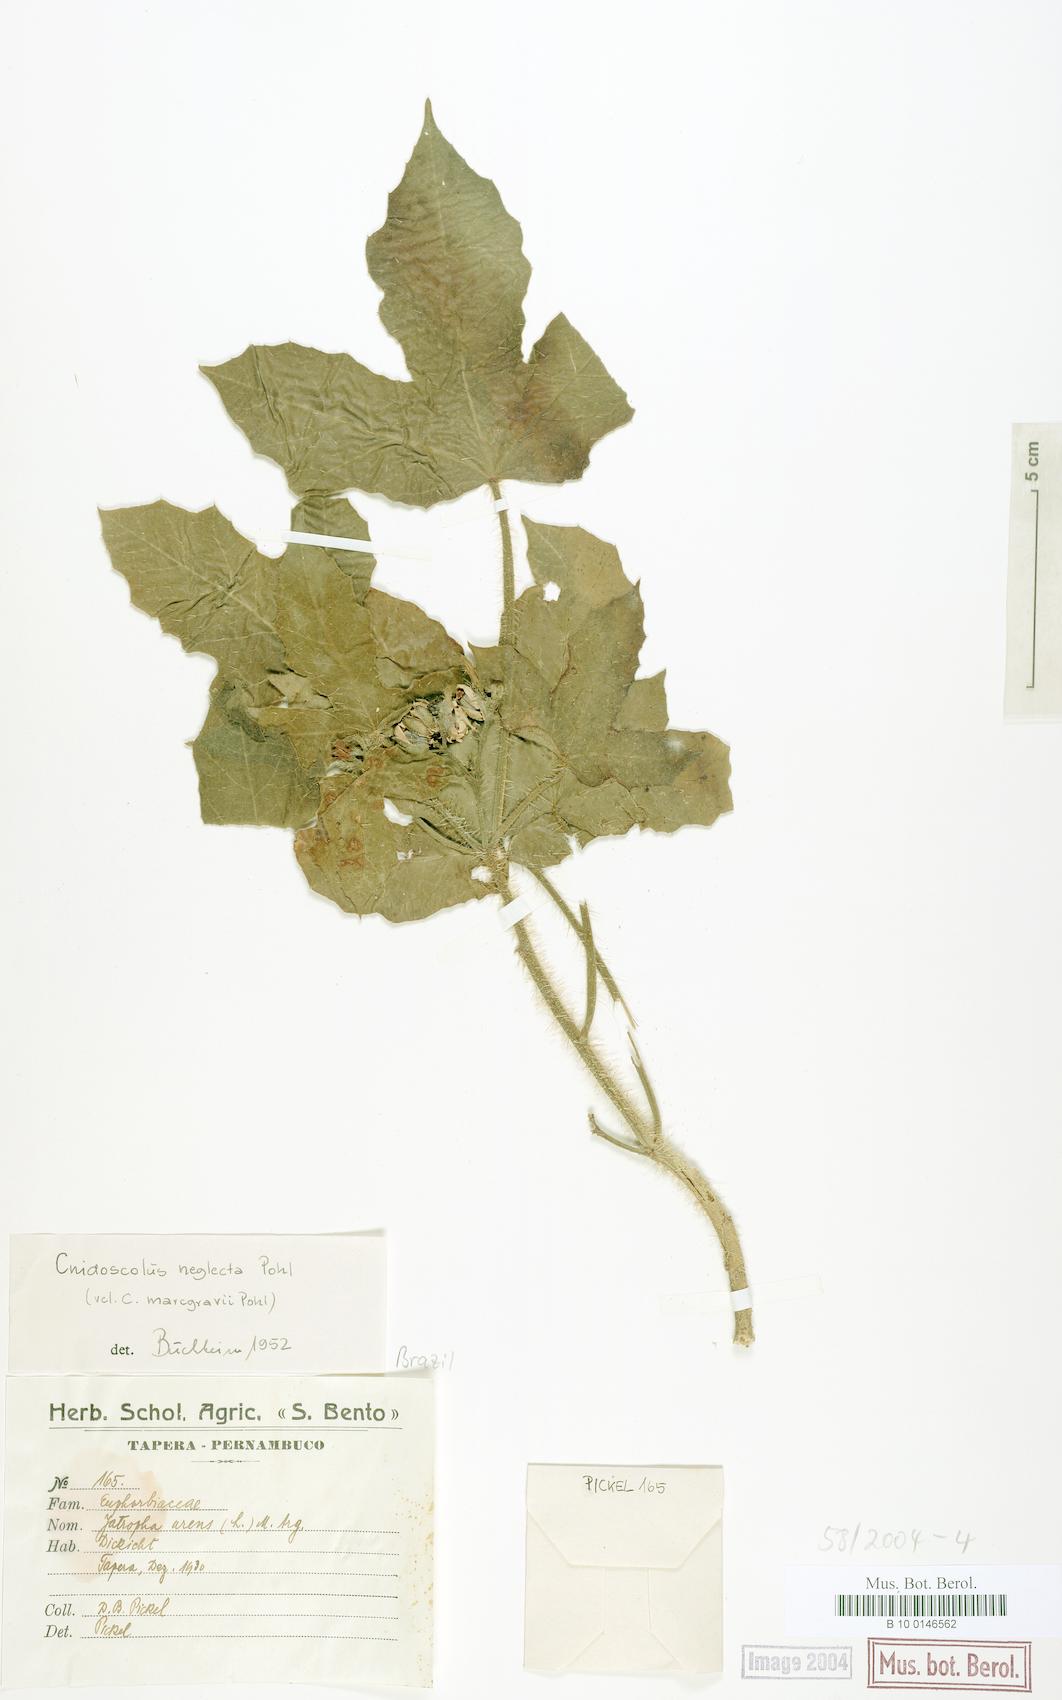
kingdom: Plantae
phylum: Tracheophyta
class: Magnoliopsida
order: Malpighiales
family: Euphorbiaceae
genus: Cnidoscolus
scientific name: Cnidoscolus neglectus
